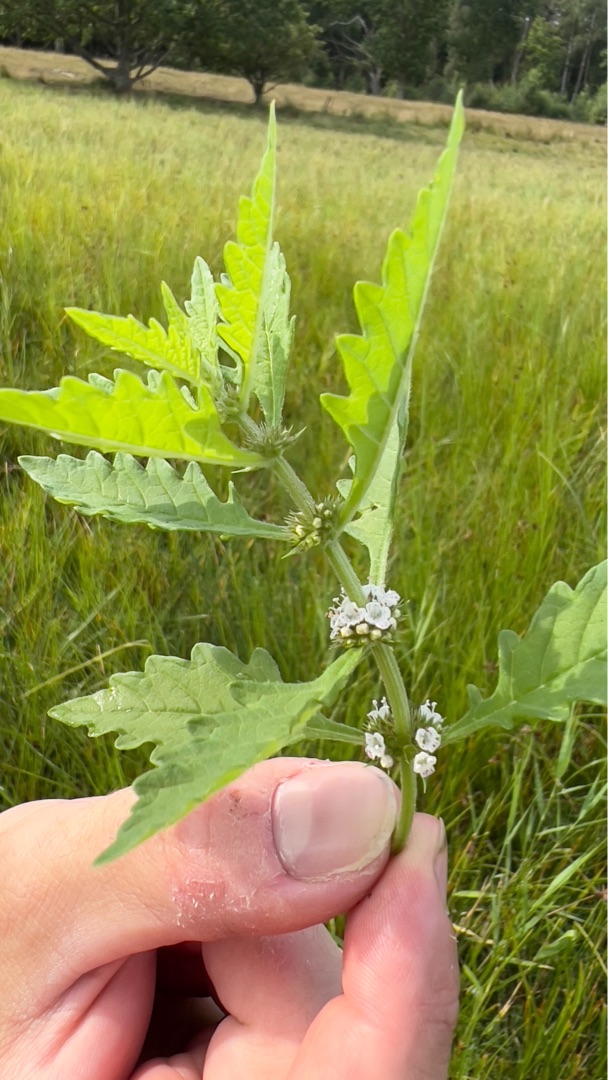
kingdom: Plantae
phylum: Tracheophyta
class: Magnoliopsida
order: Lamiales
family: Lamiaceae
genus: Lycopus
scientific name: Lycopus europaeus
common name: Sværtevæld
